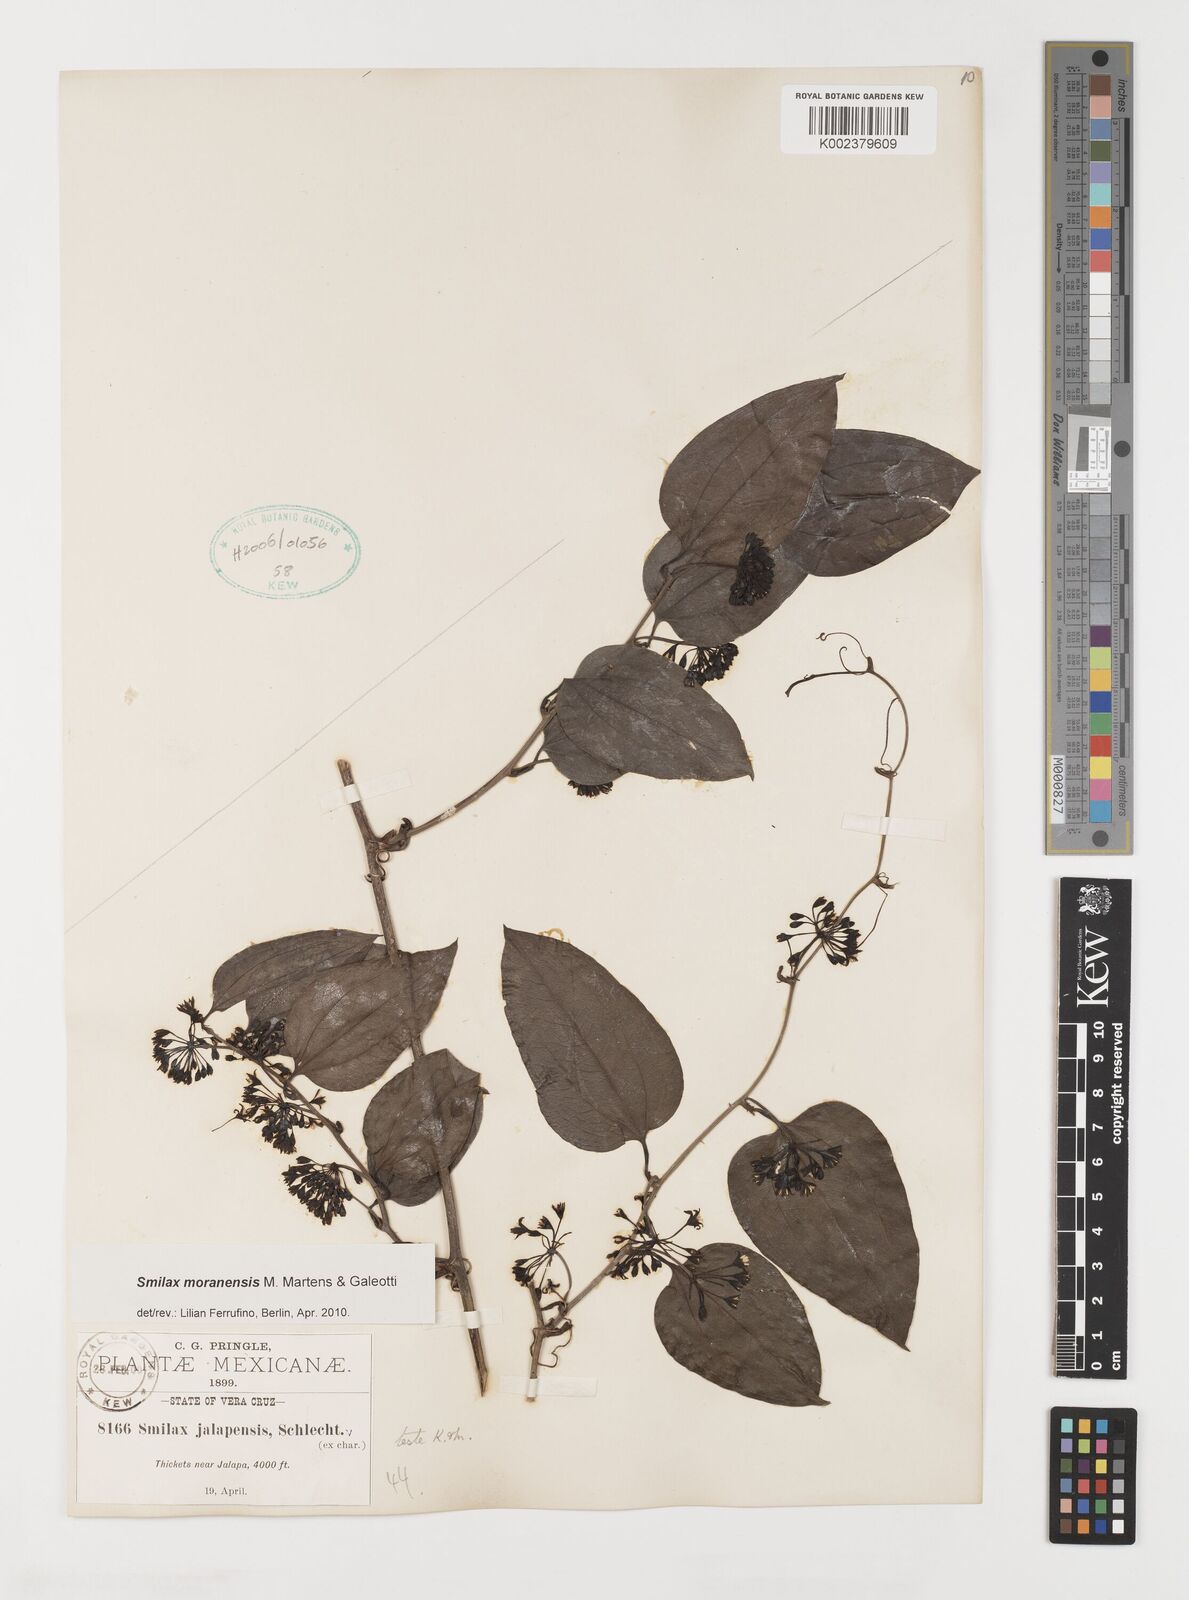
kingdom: Plantae
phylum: Tracheophyta
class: Liliopsida
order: Liliales
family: Smilacaceae
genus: Smilax
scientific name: Smilax moranensis
